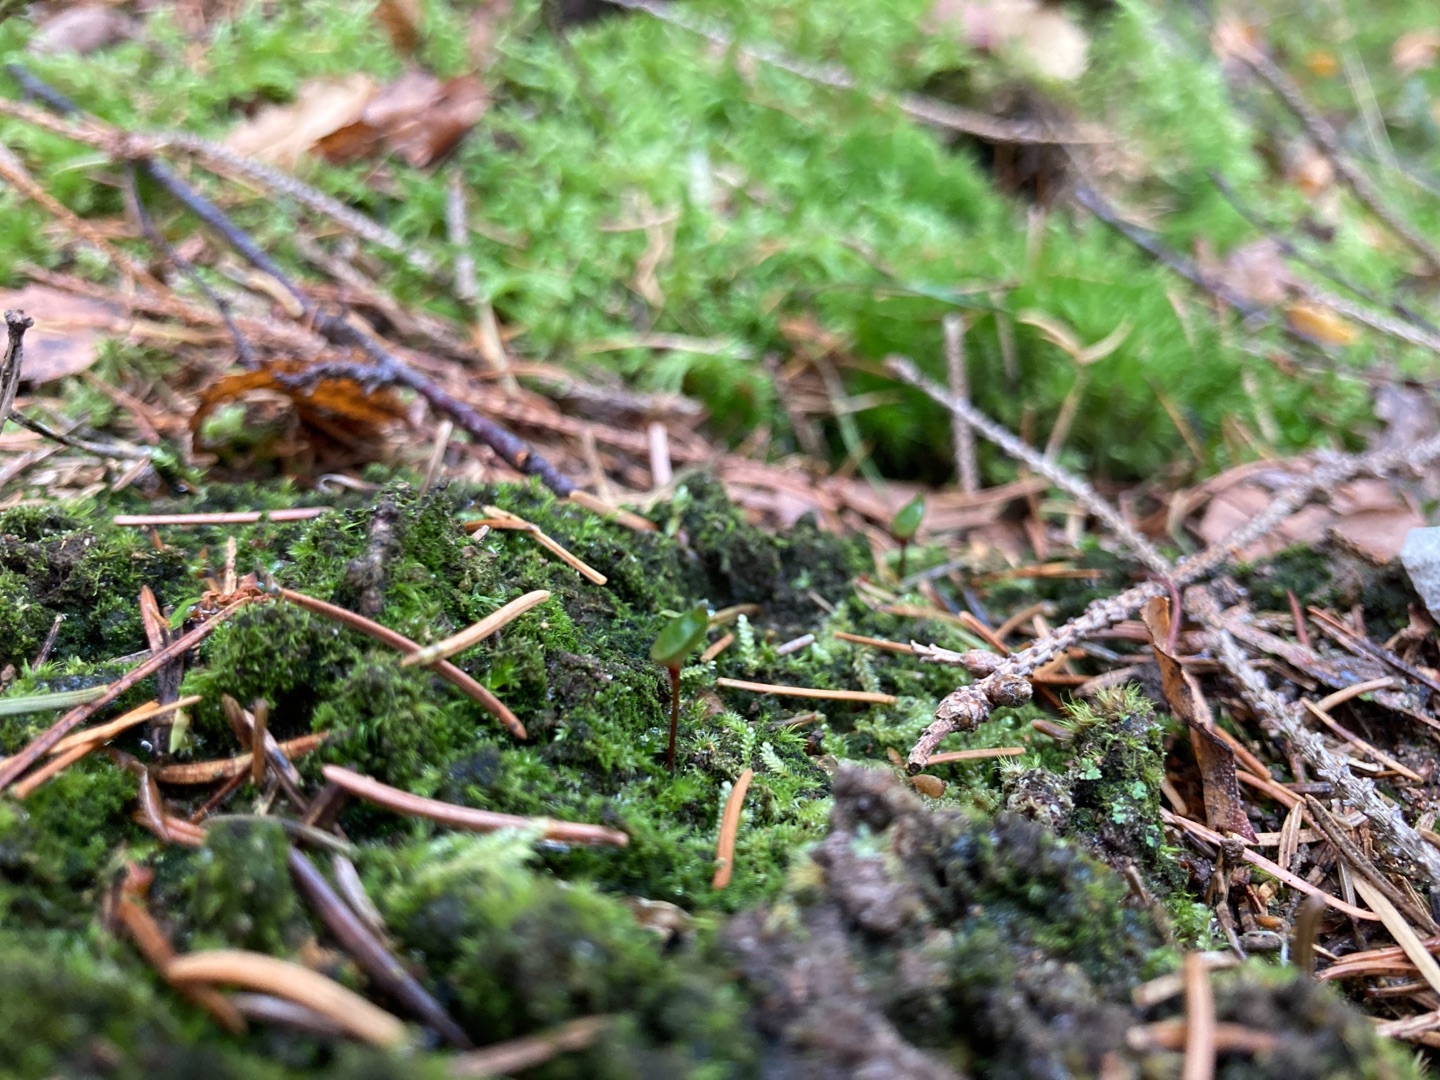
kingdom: Plantae
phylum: Bryophyta
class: Bryopsida
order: Buxbaumiales
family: Buxbaumiaceae
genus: Buxbaumia
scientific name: Buxbaumia aphylla
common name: Rundkapslet buxbaumia
